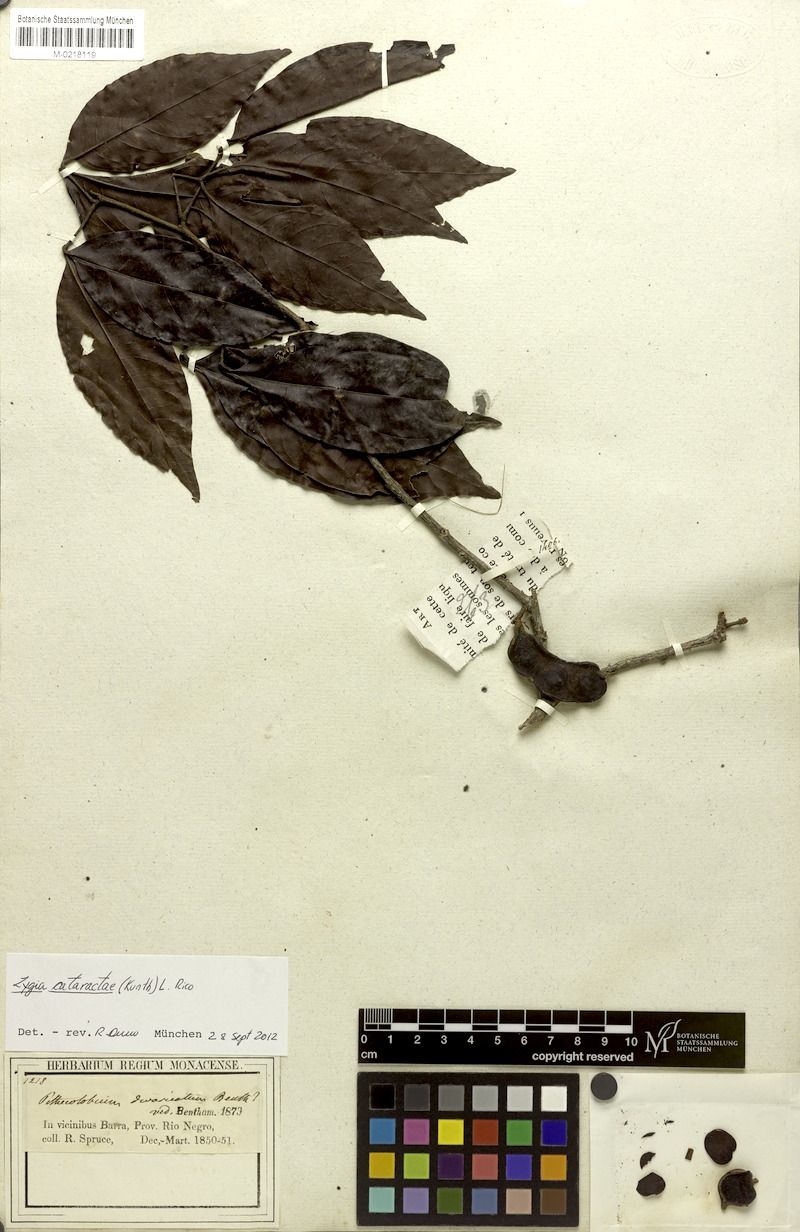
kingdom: Plantae
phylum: Tracheophyta
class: Magnoliopsida
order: Fabales
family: Fabaceae
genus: Zygia
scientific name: Zygia cataractae
